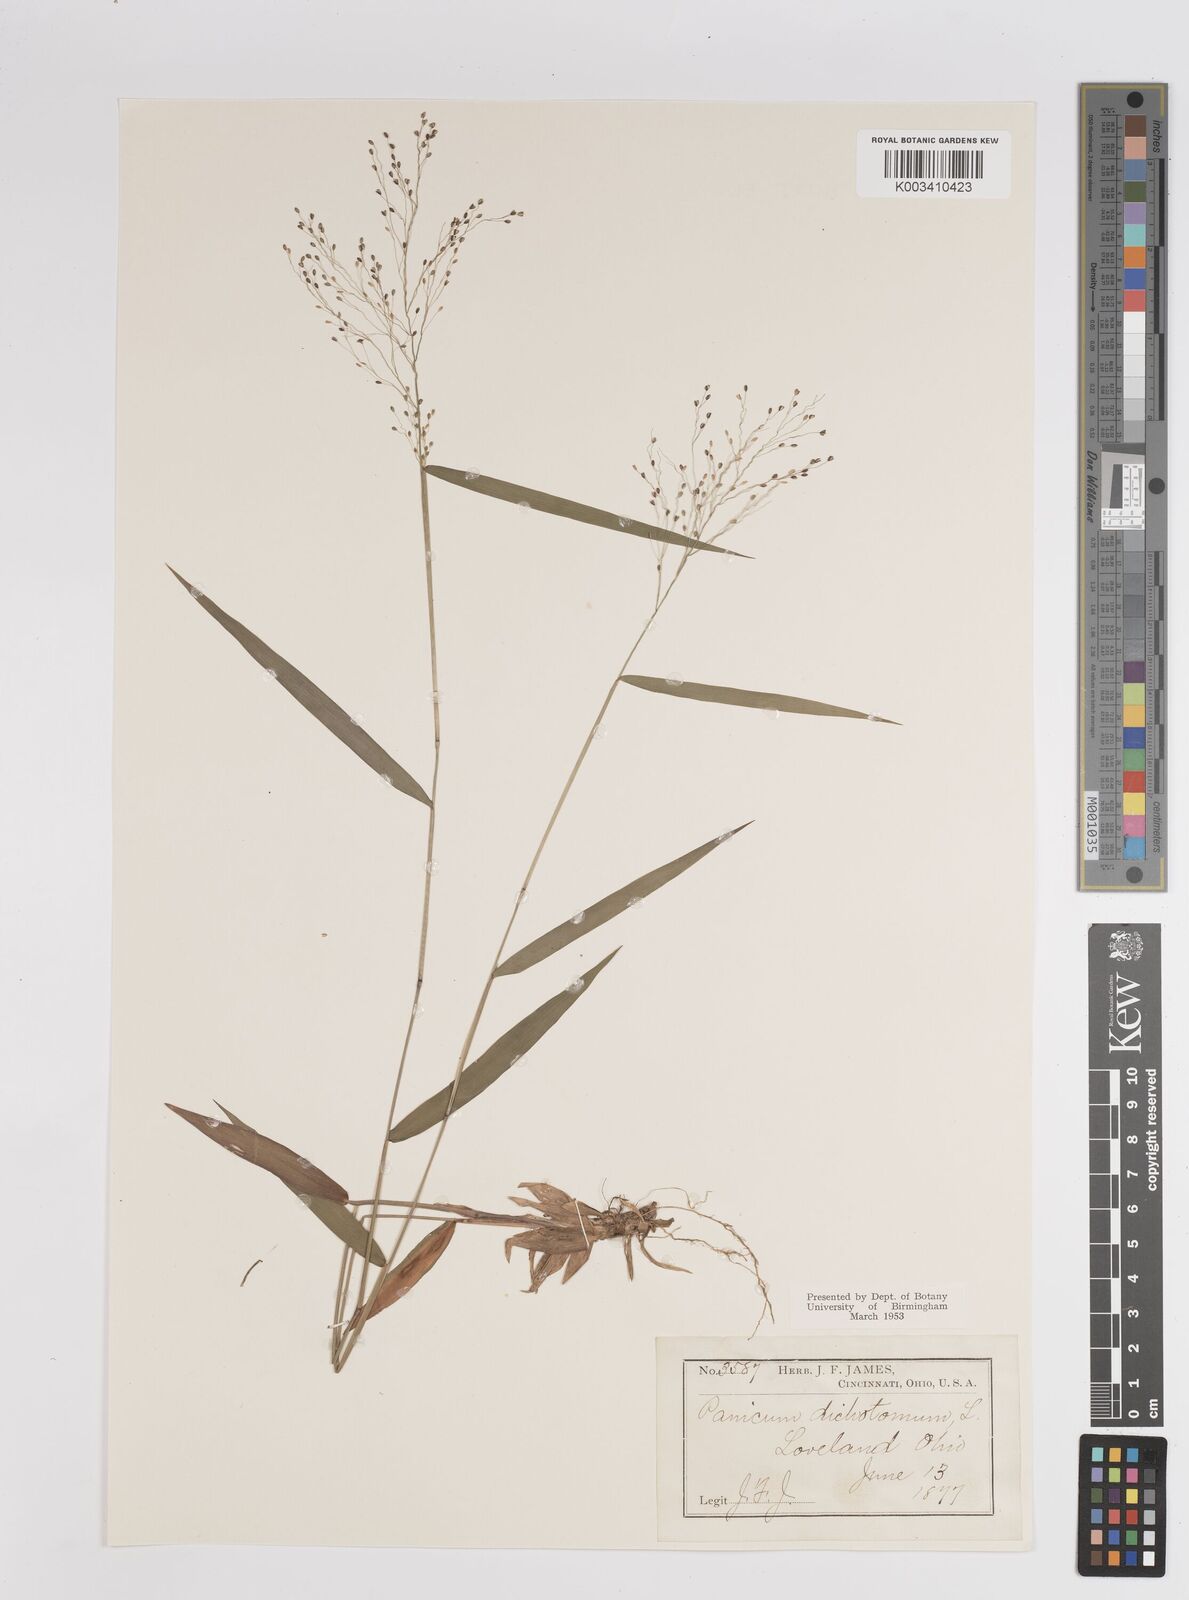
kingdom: Plantae
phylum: Tracheophyta
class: Liliopsida
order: Poales
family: Poaceae
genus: Dichanthelium
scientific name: Dichanthelium dichotomum
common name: Cypress panicgrass
